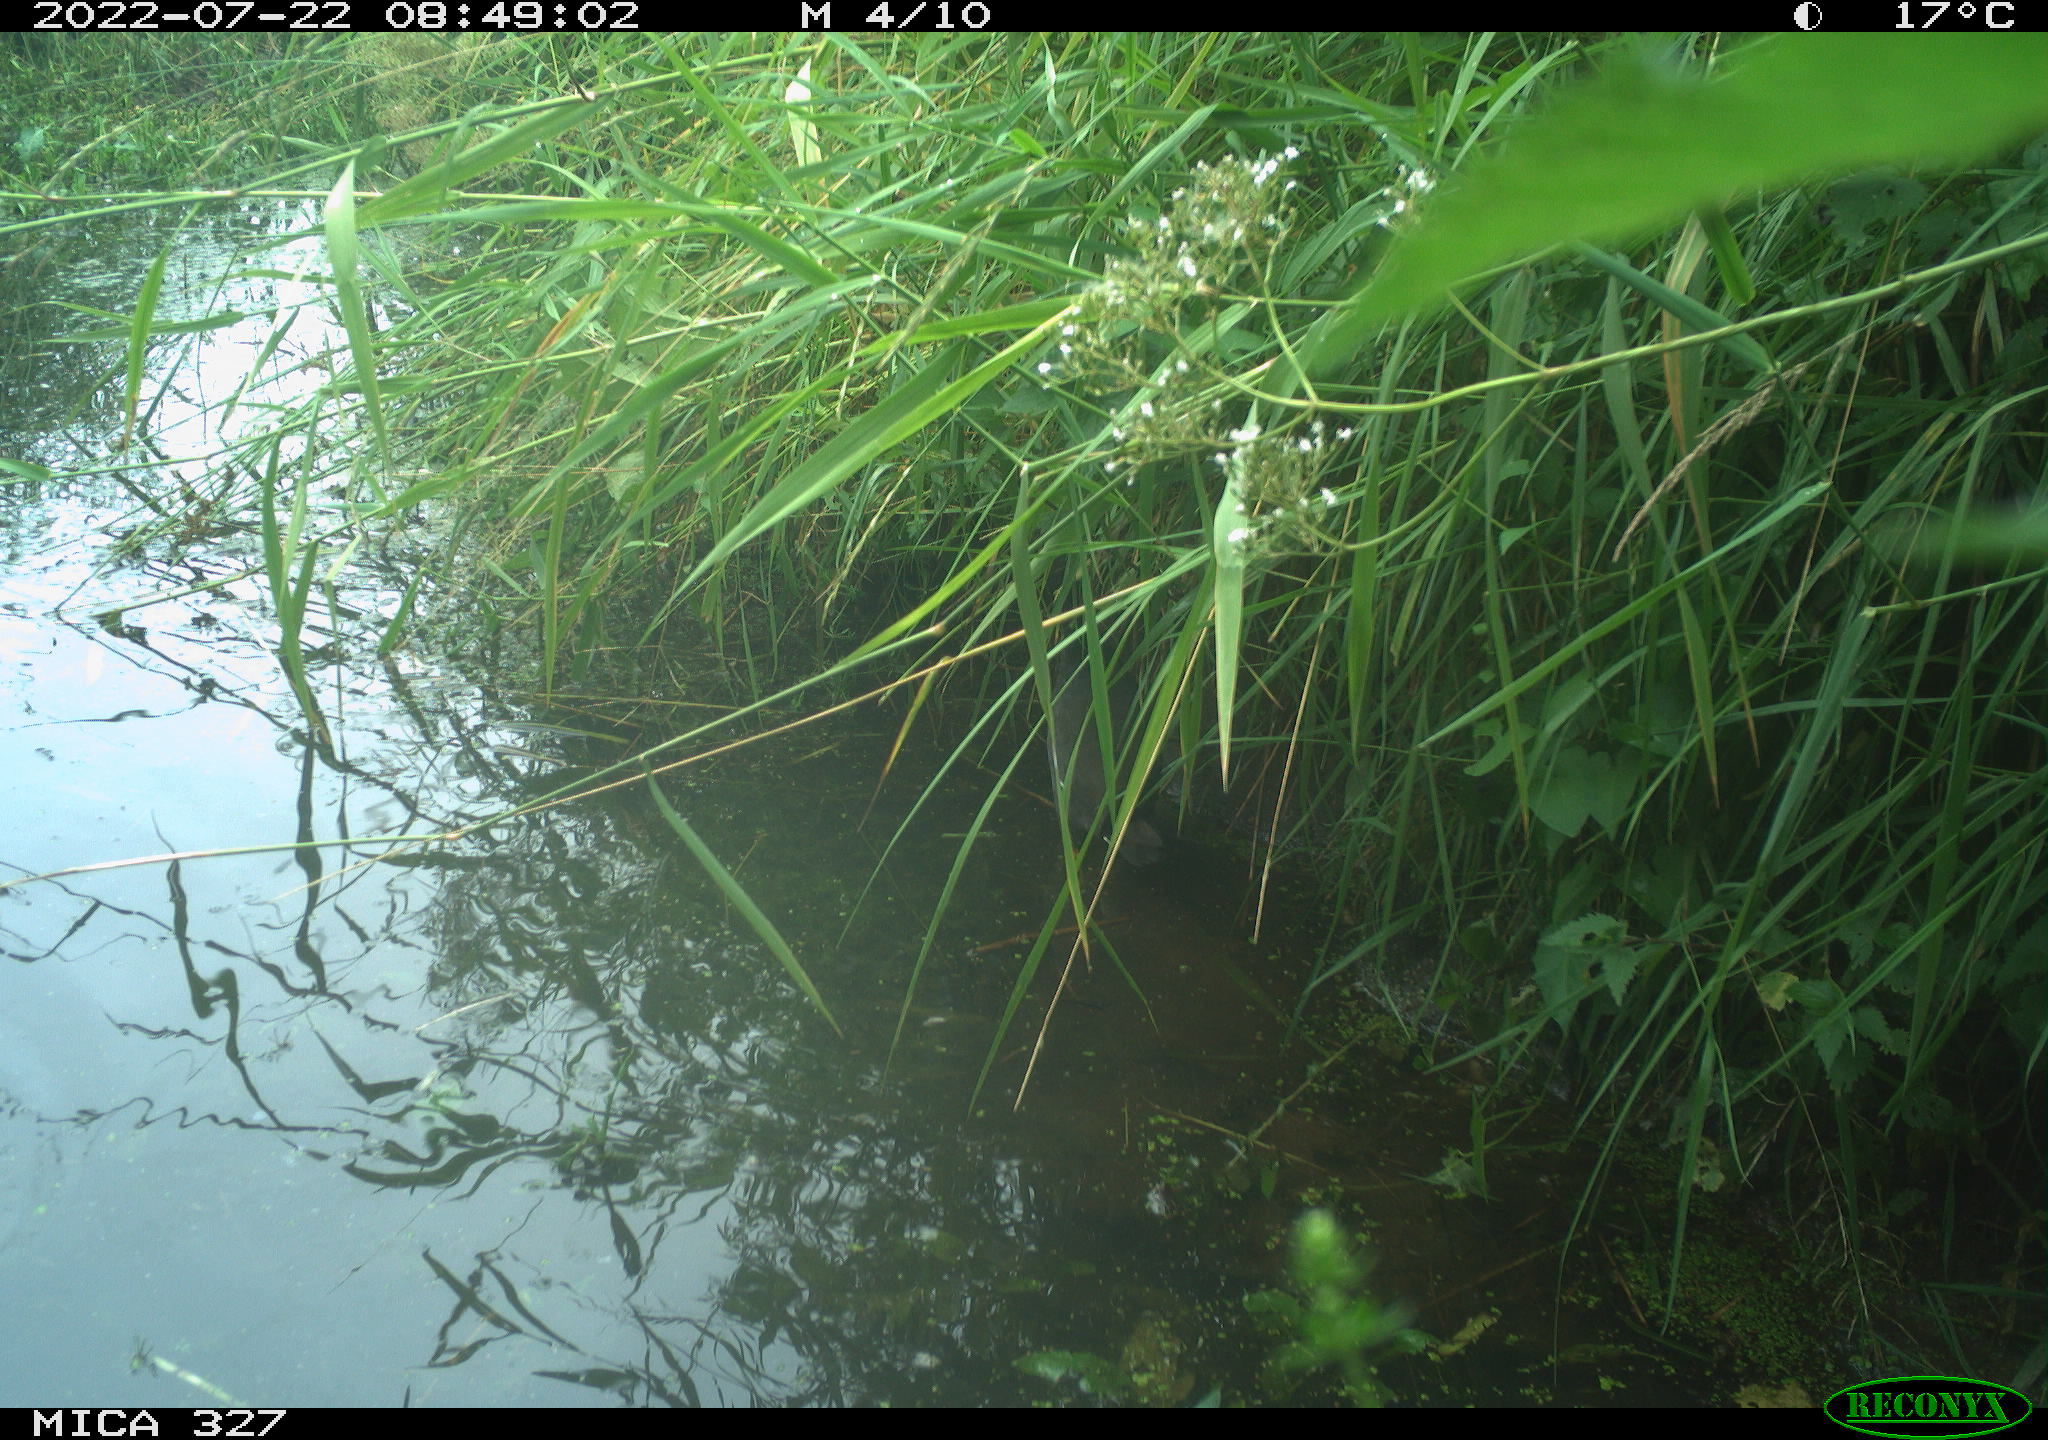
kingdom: Animalia
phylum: Chordata
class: Aves
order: Gruiformes
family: Rallidae
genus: Gallinula
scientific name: Gallinula chloropus
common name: Common moorhen
